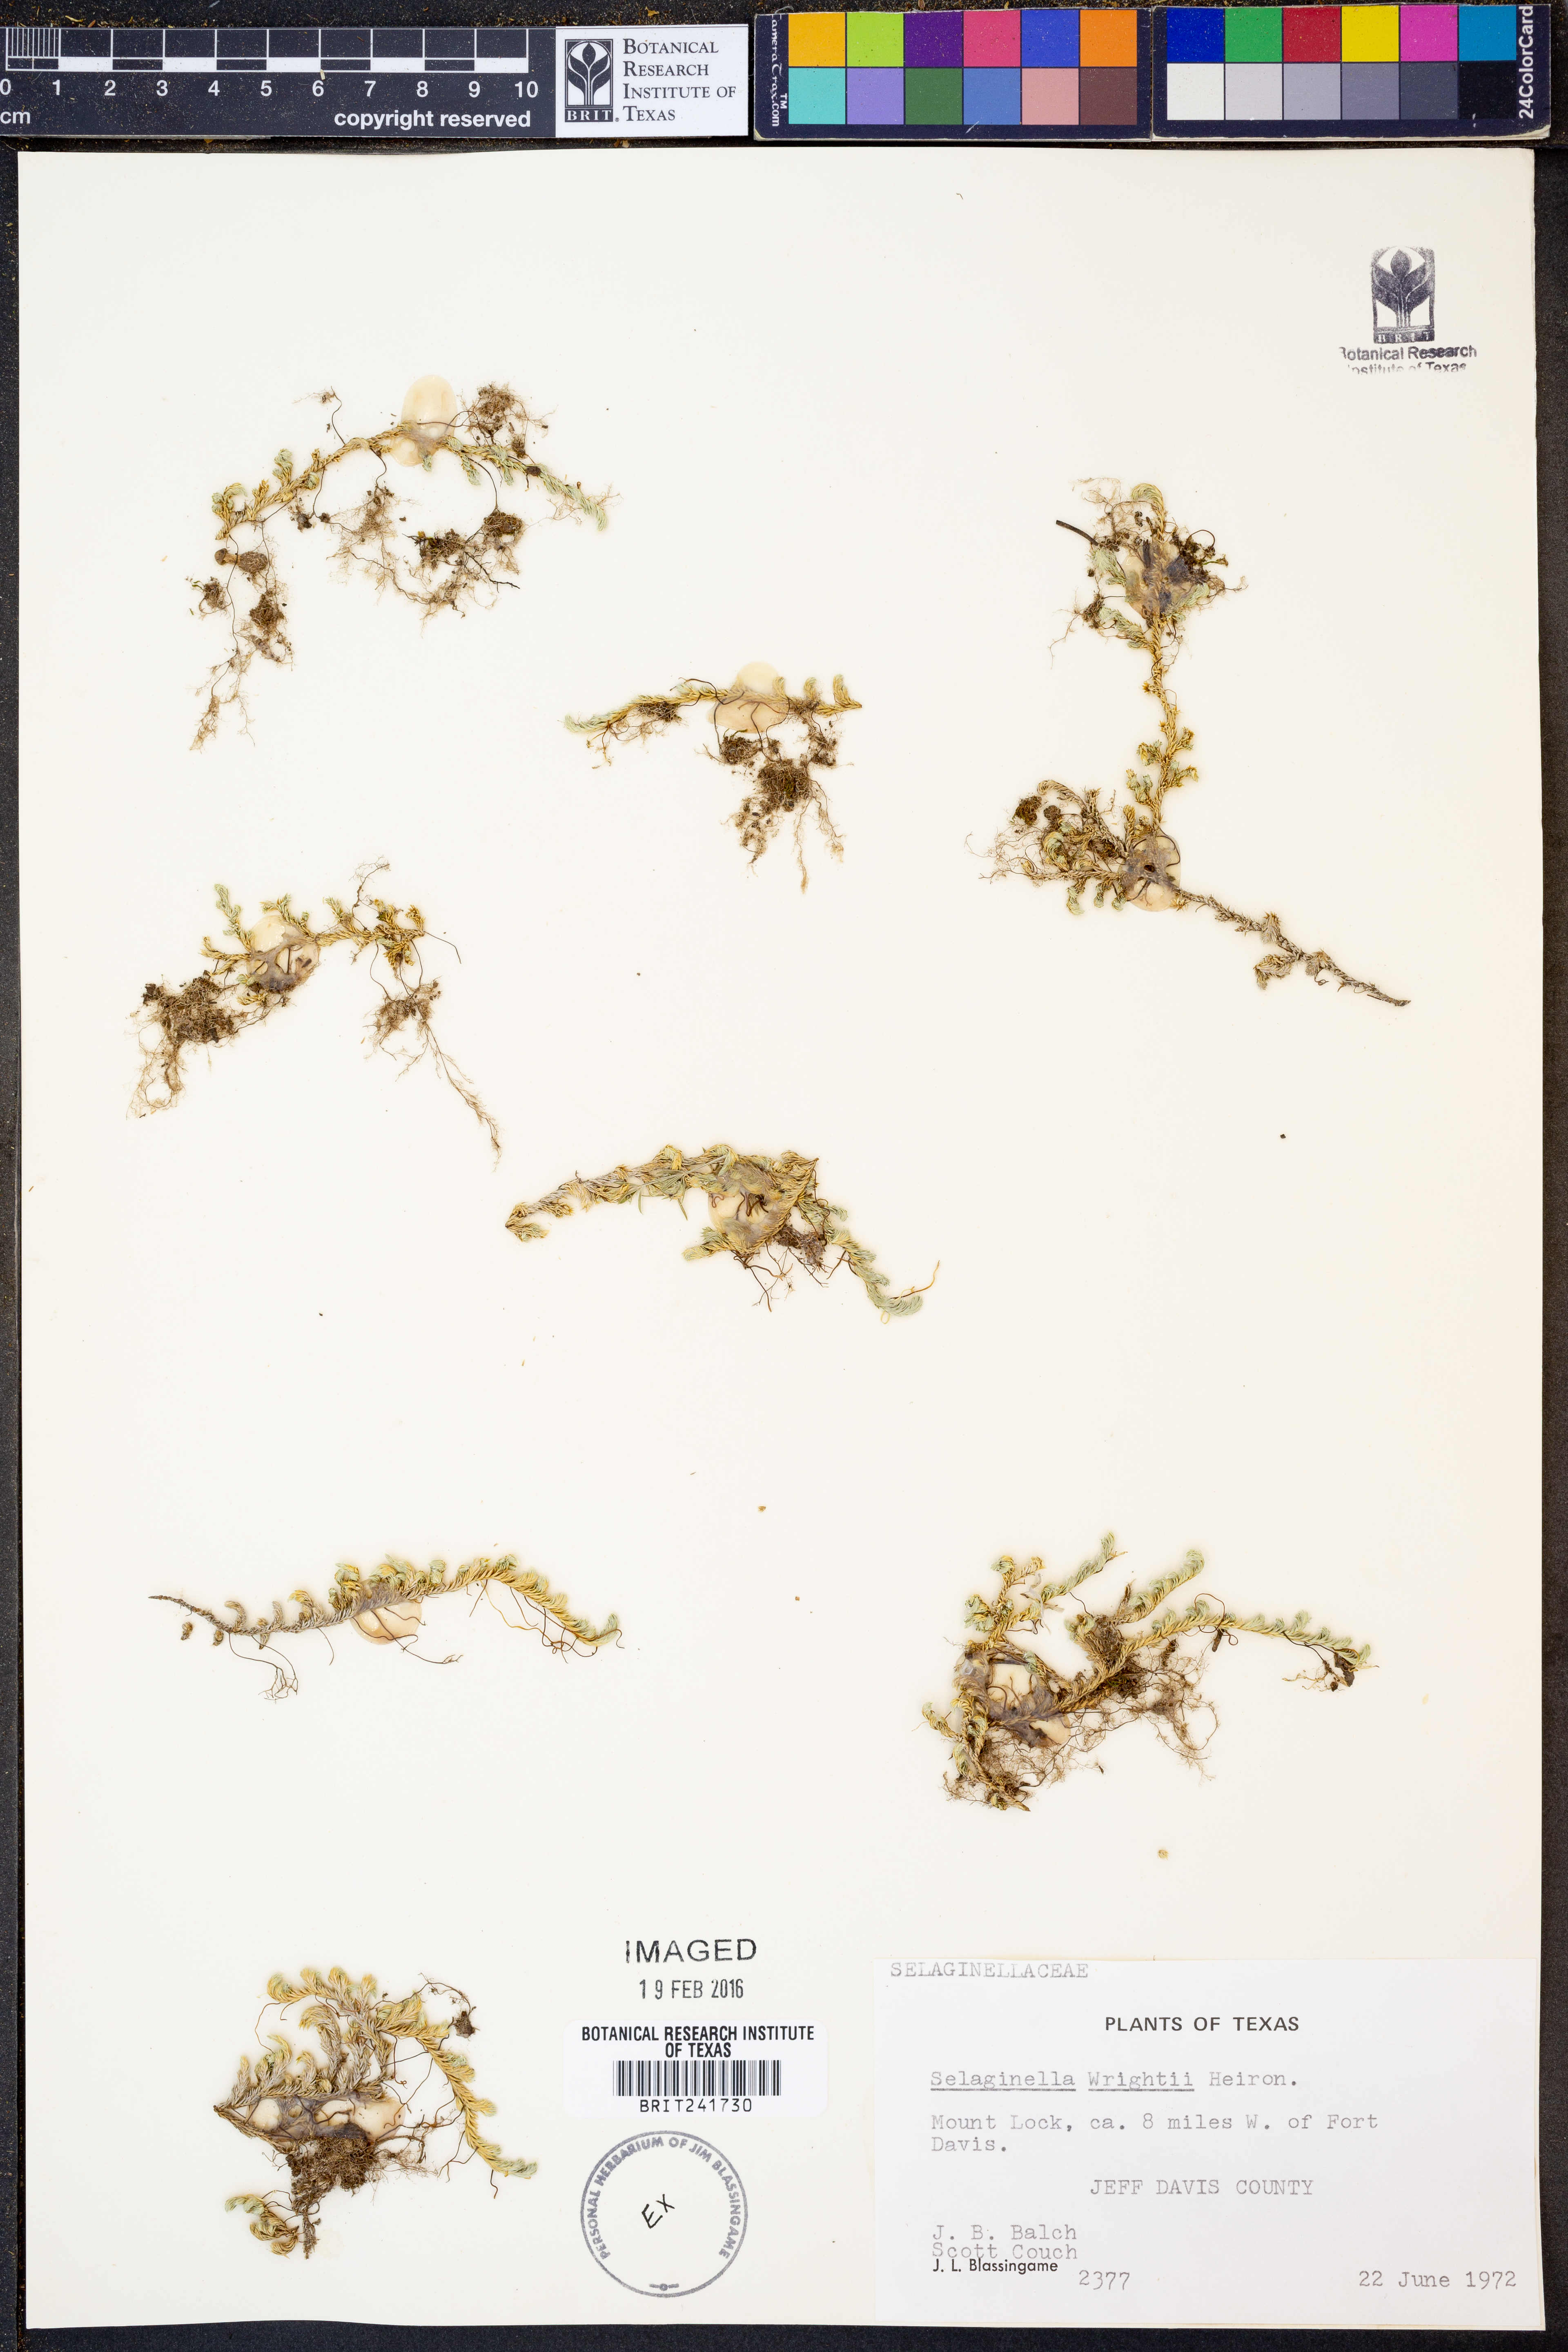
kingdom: Plantae
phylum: Tracheophyta
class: Lycopodiopsida
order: Selaginellales
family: Selaginellaceae
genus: Selaginella
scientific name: Selaginella wrightii
